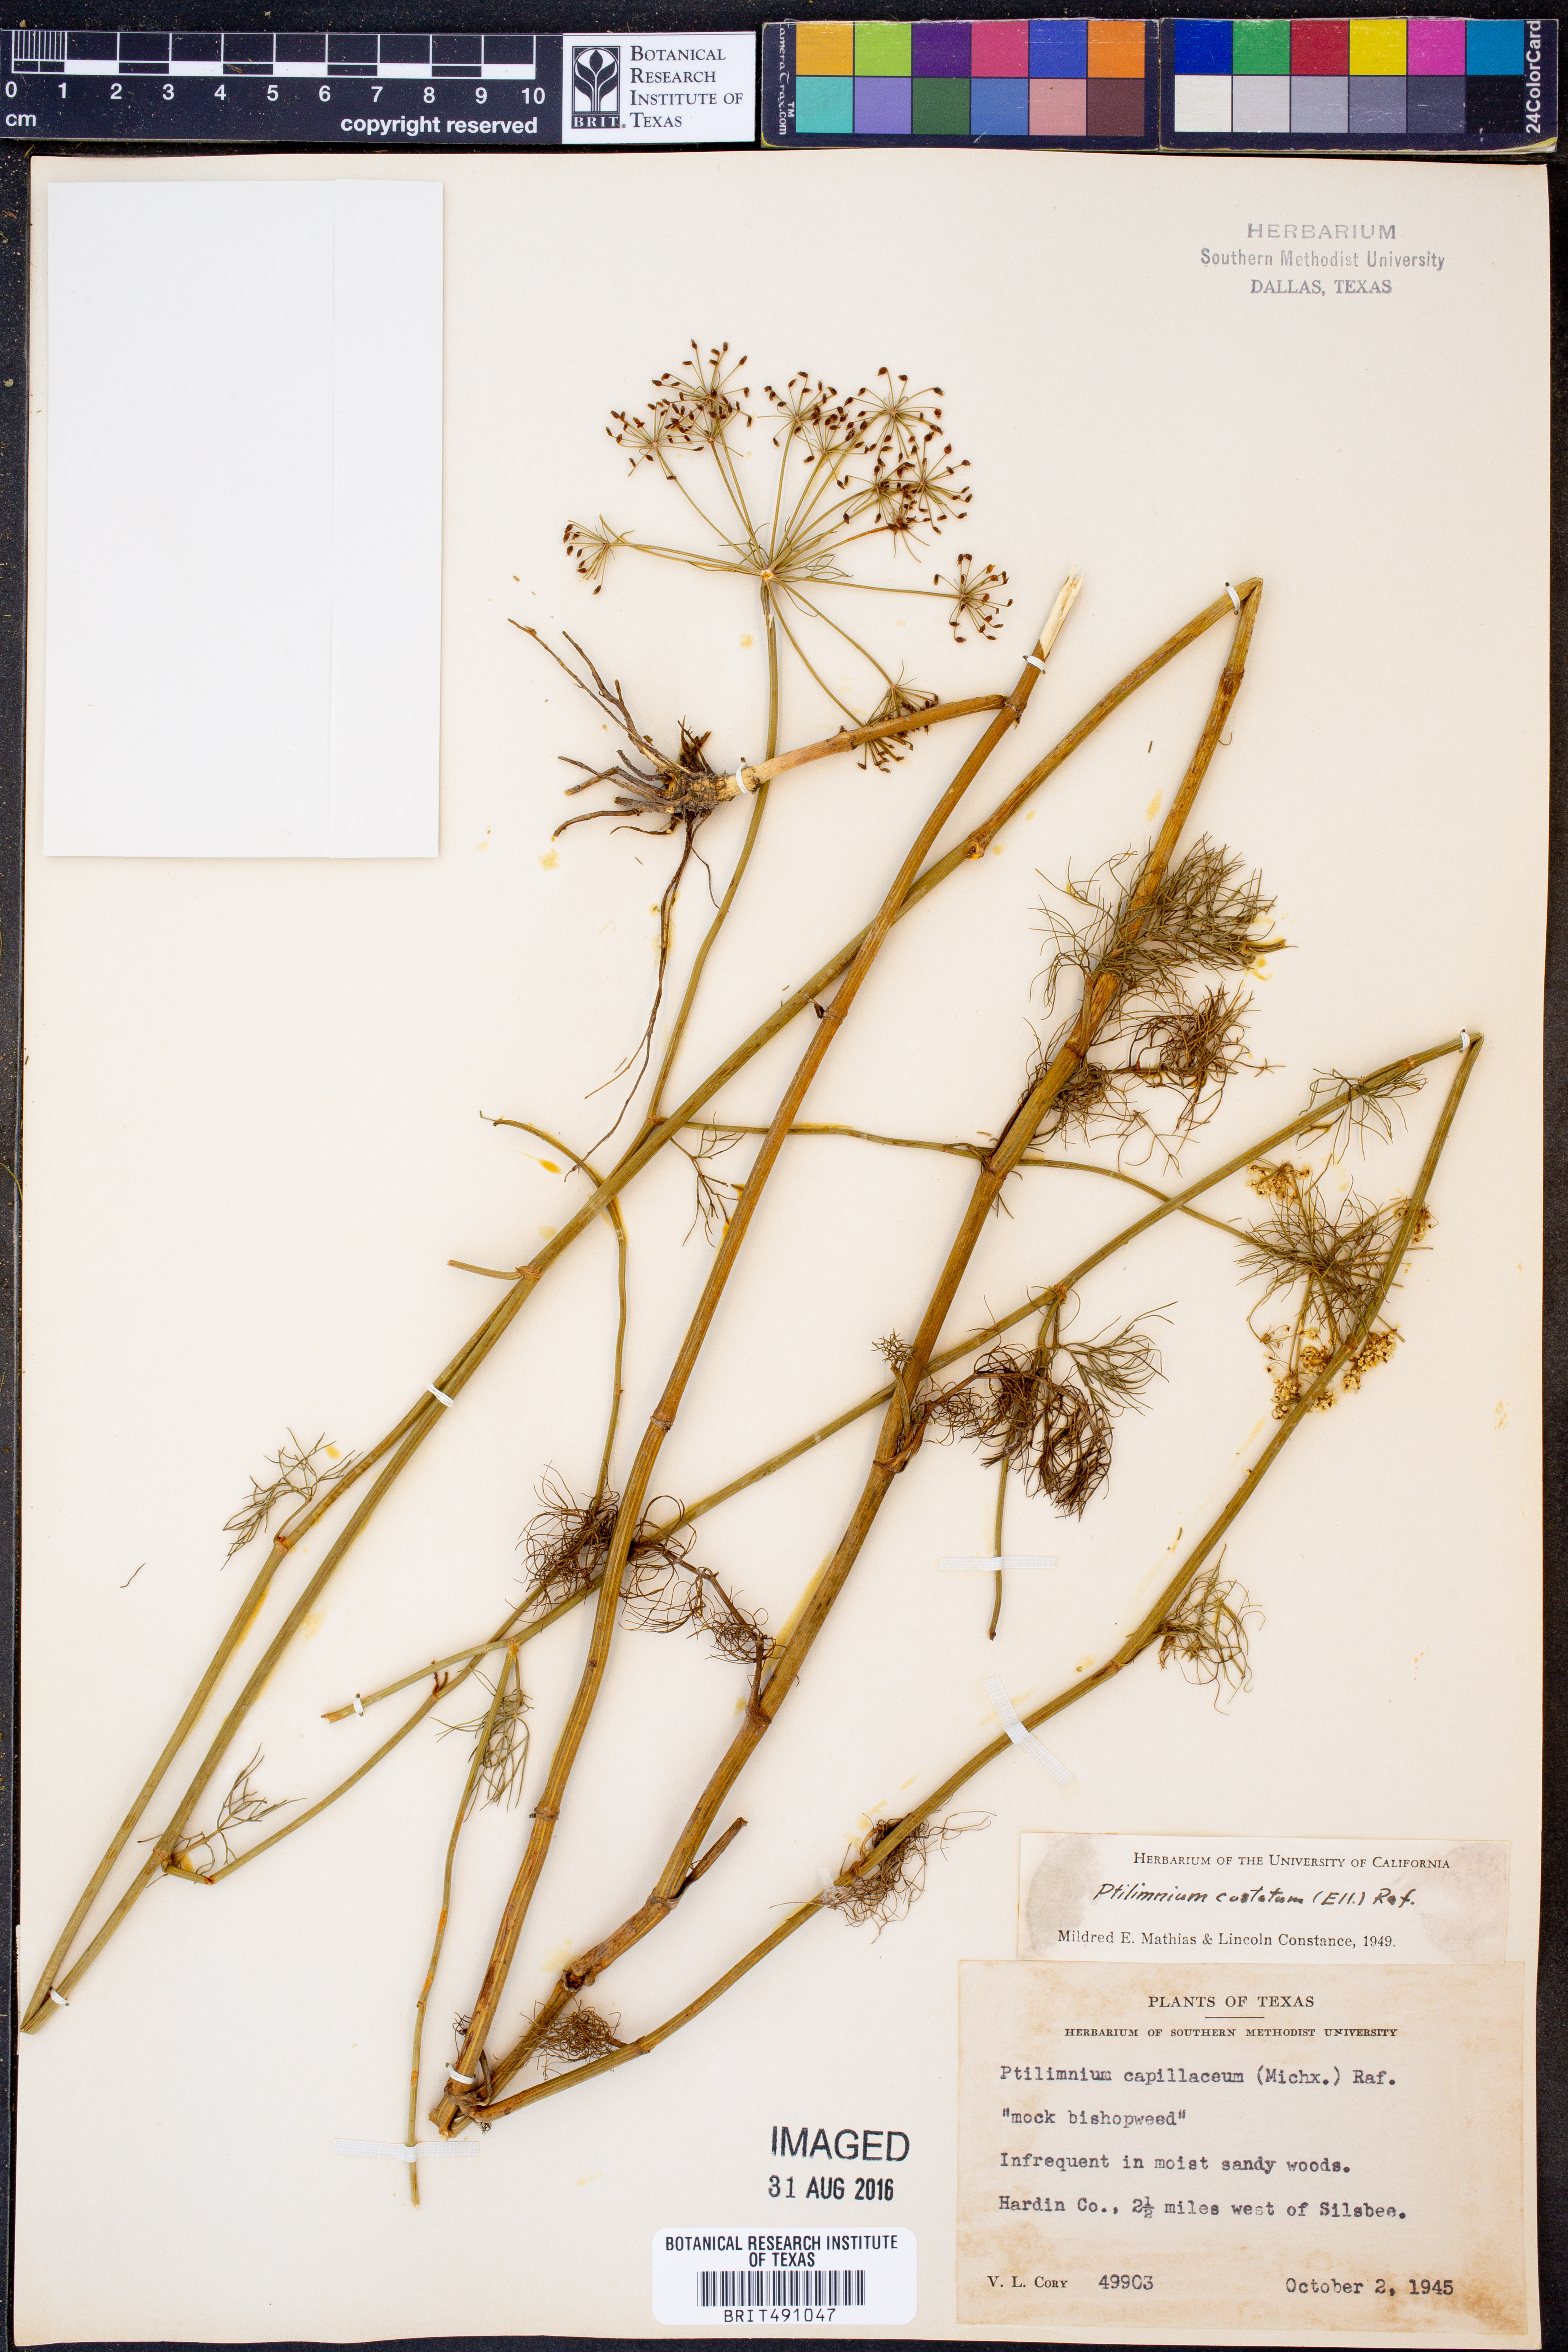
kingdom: Plantae
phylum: Tracheophyta
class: Magnoliopsida
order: Apiales
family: Apiaceae
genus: Ptilimnium
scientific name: Ptilimnium costatum
